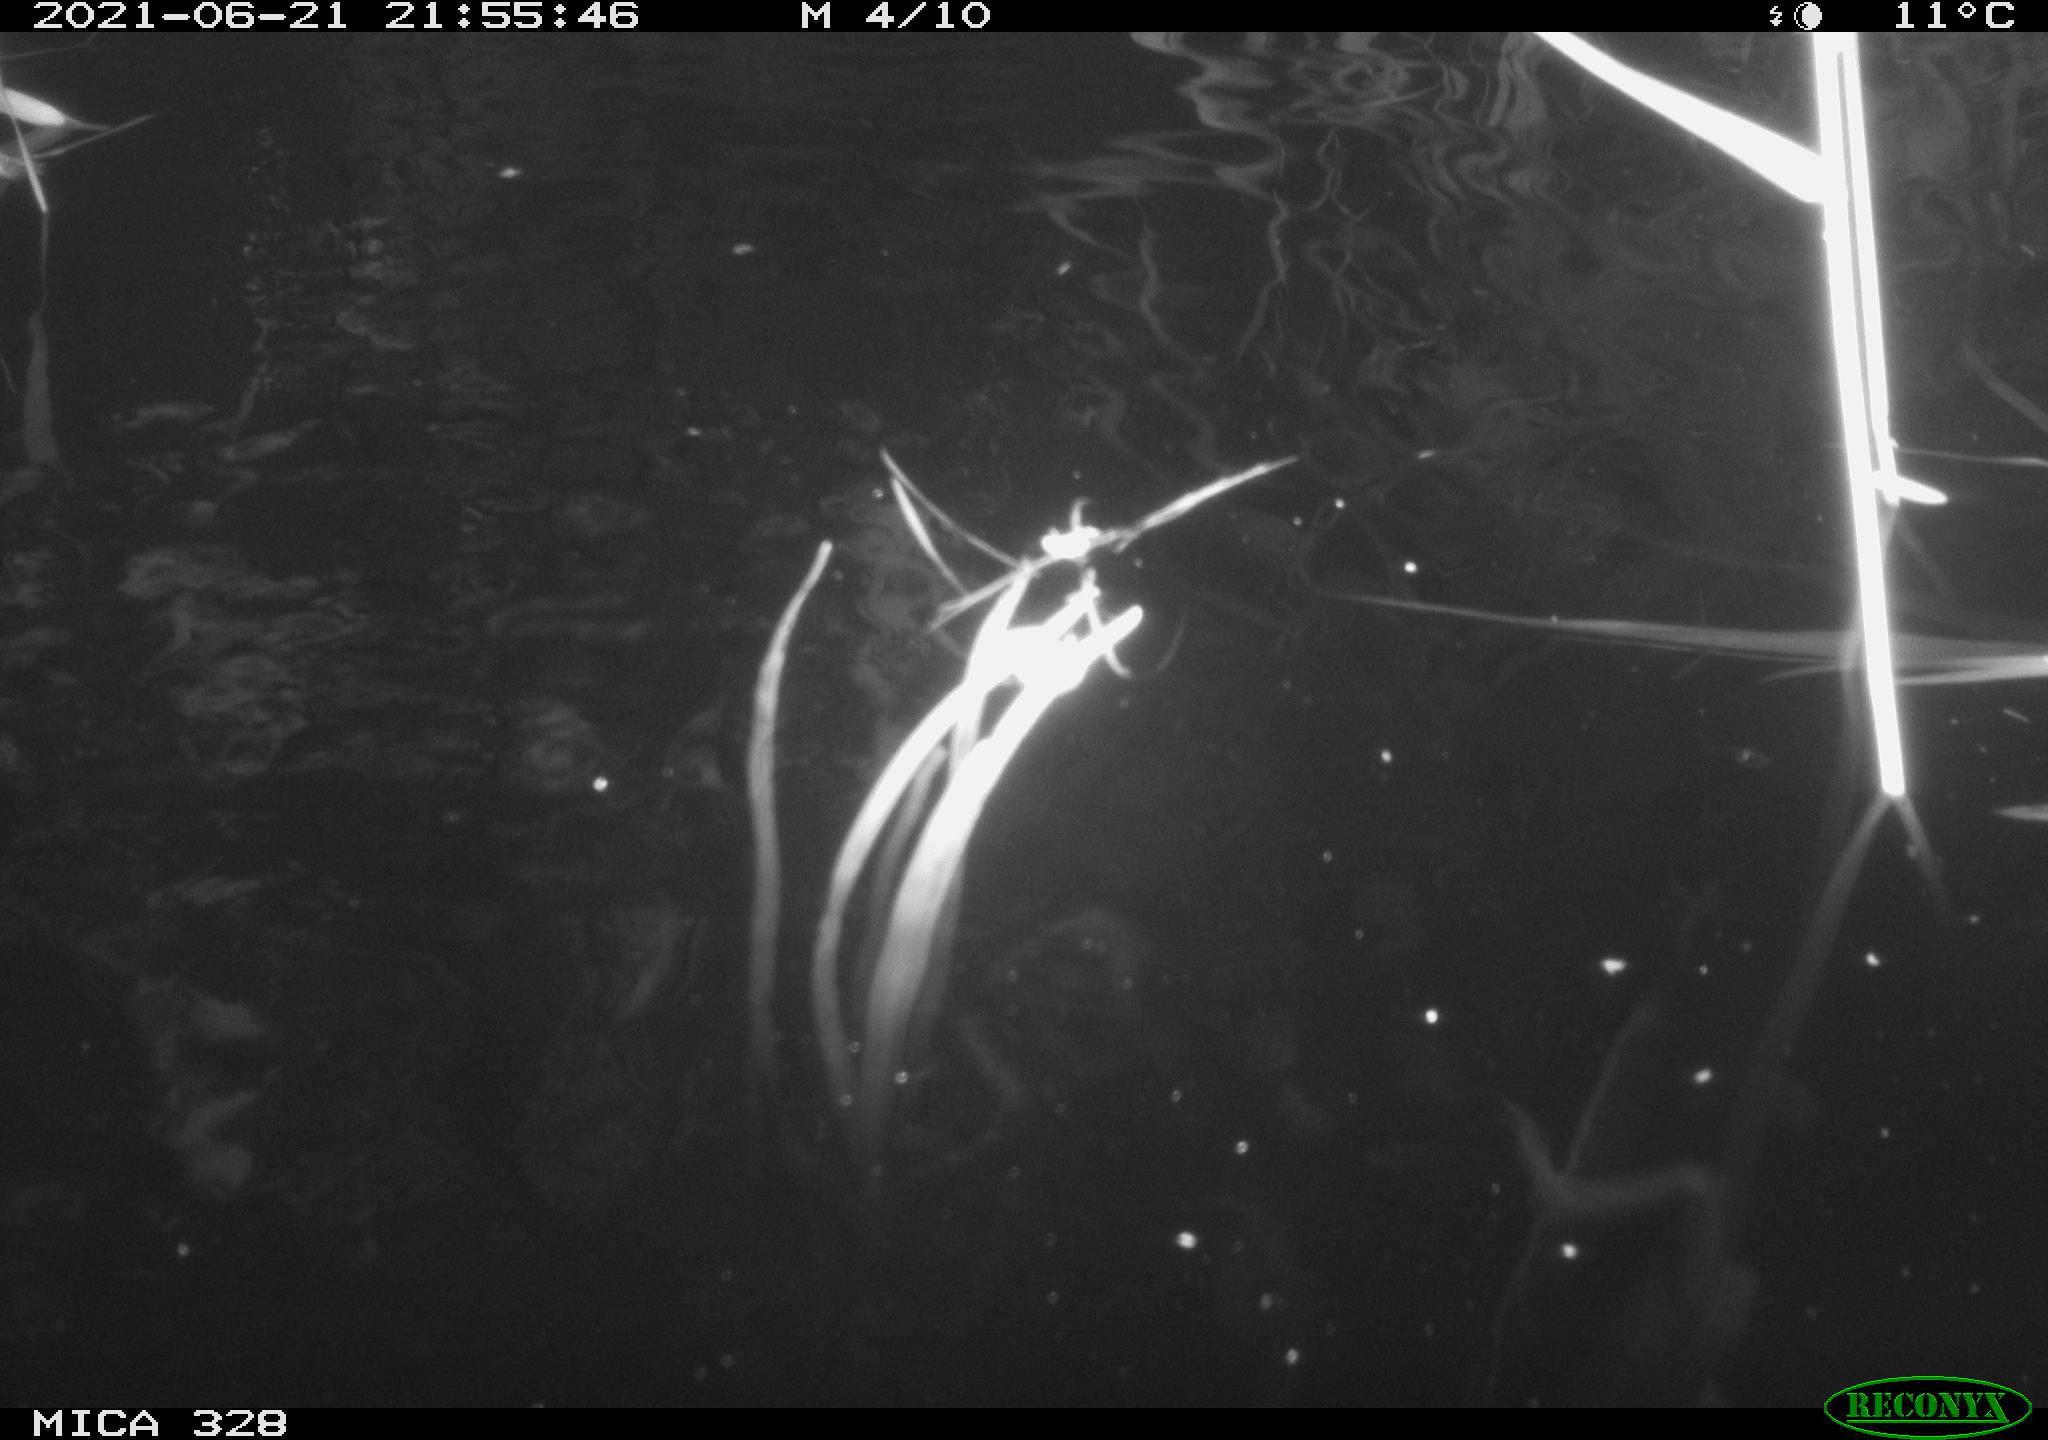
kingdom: Animalia
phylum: Chordata
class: Mammalia
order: Rodentia
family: Cricetidae
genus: Ondatra
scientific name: Ondatra zibethicus
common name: Muskrat
